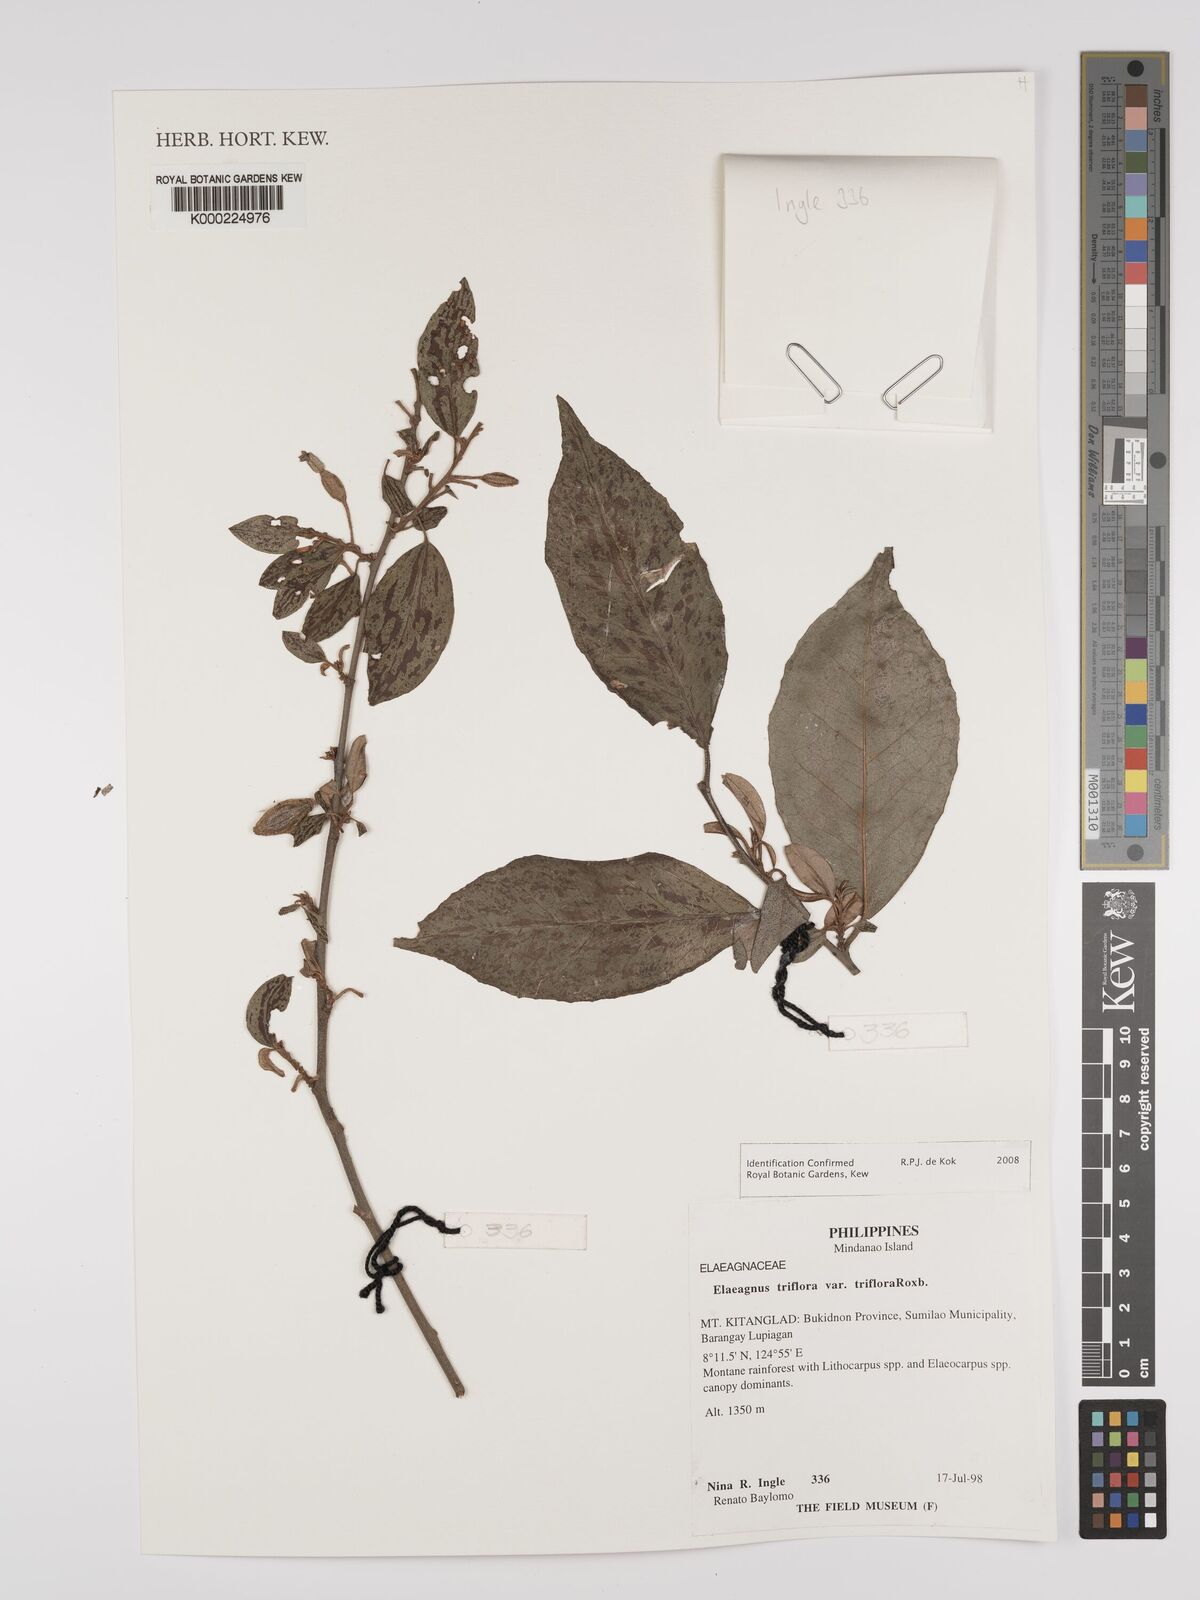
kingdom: Plantae
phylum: Tracheophyta
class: Magnoliopsida
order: Rosales
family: Elaeagnaceae
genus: Elaeagnus
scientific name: Elaeagnus
